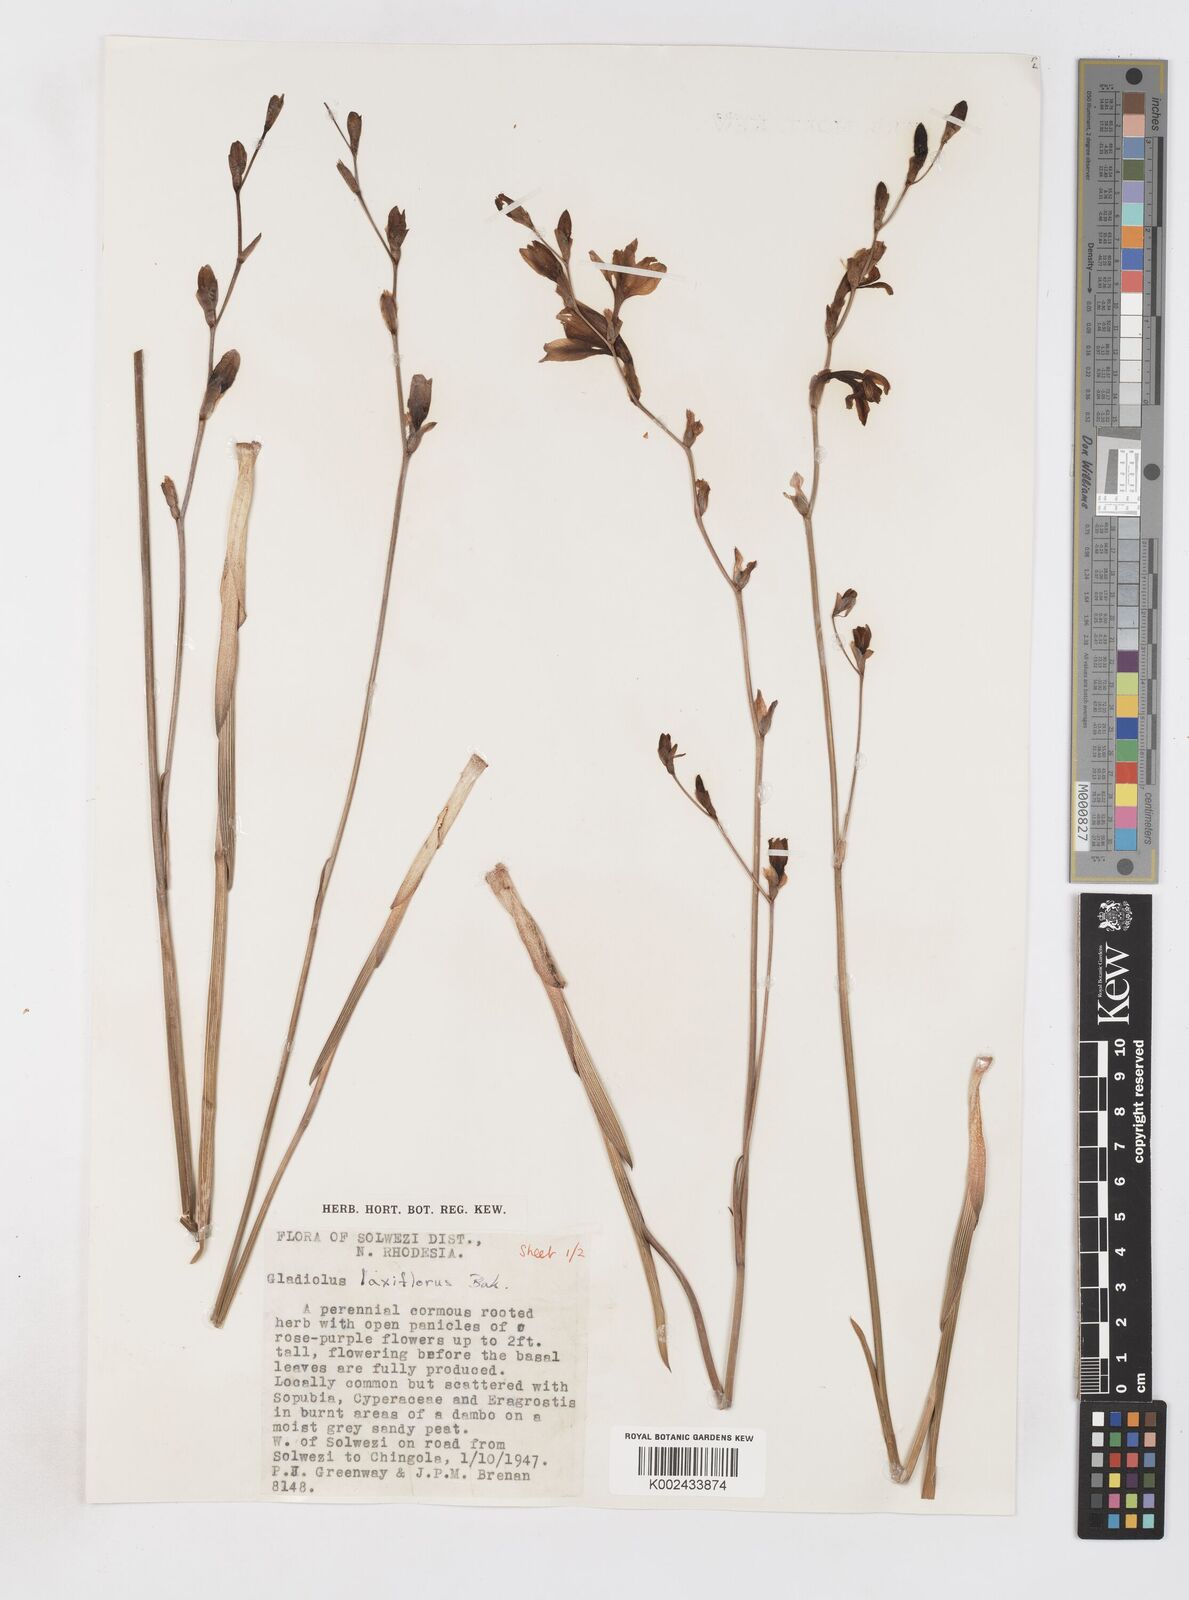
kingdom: Plantae
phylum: Tracheophyta
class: Liliopsida
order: Asparagales
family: Iridaceae
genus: Gladiolus
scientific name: Gladiolus laxiflorus
